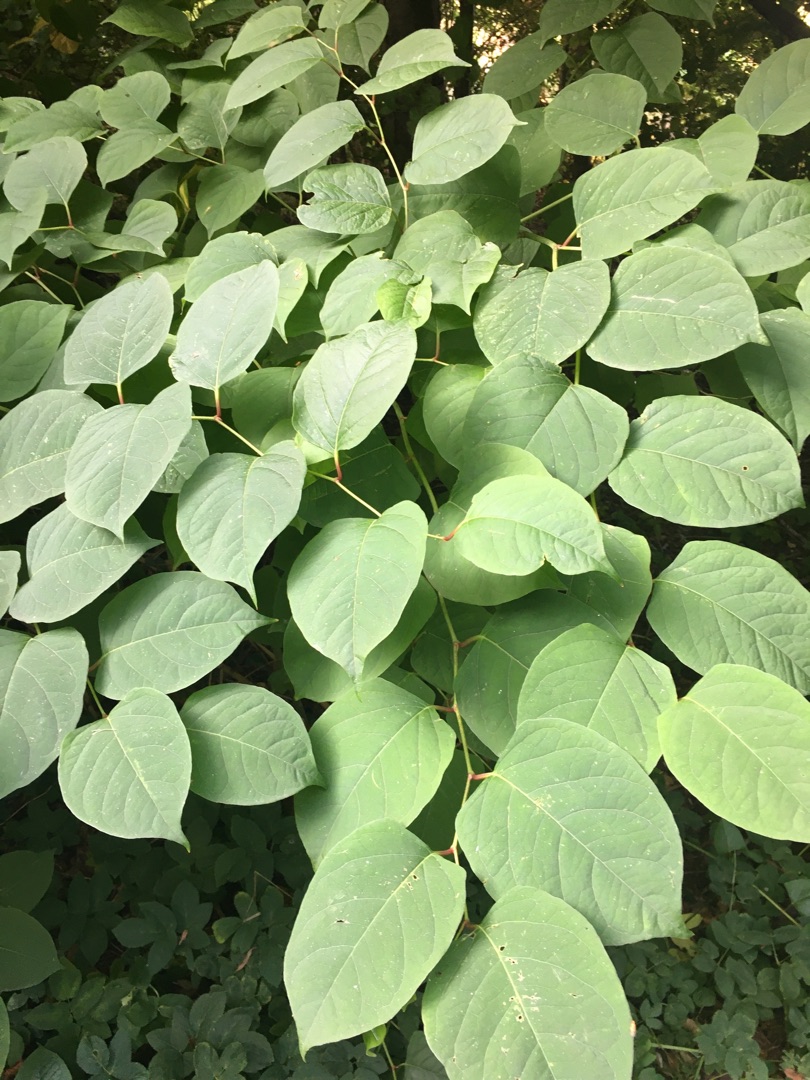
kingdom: Plantae
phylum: Tracheophyta
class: Magnoliopsida
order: Caryophyllales
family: Polygonaceae
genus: Reynoutria
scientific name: Reynoutria japonica
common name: Japan-pileurt
